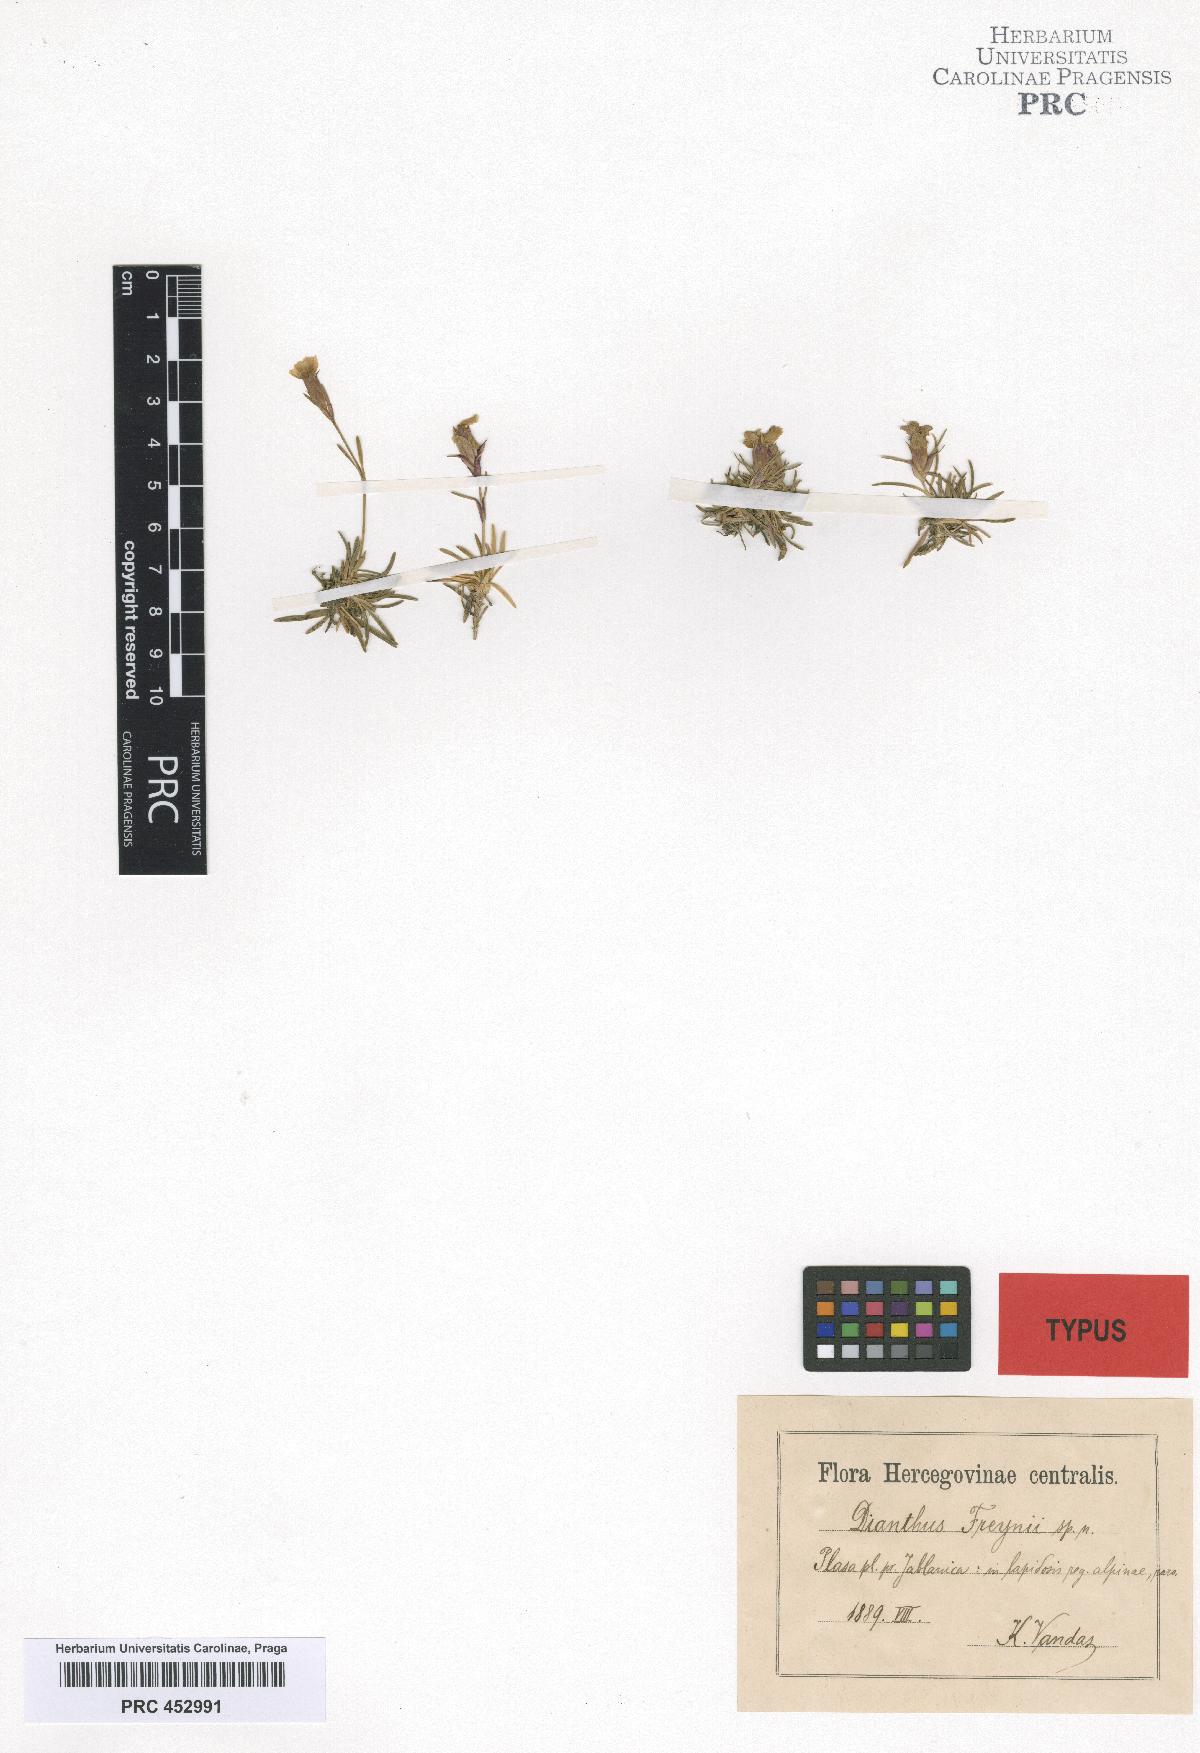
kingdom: Plantae
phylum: Tracheophyta
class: Magnoliopsida
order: Caryophyllales
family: Caryophyllaceae
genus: Dianthus
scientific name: Dianthus freynii
